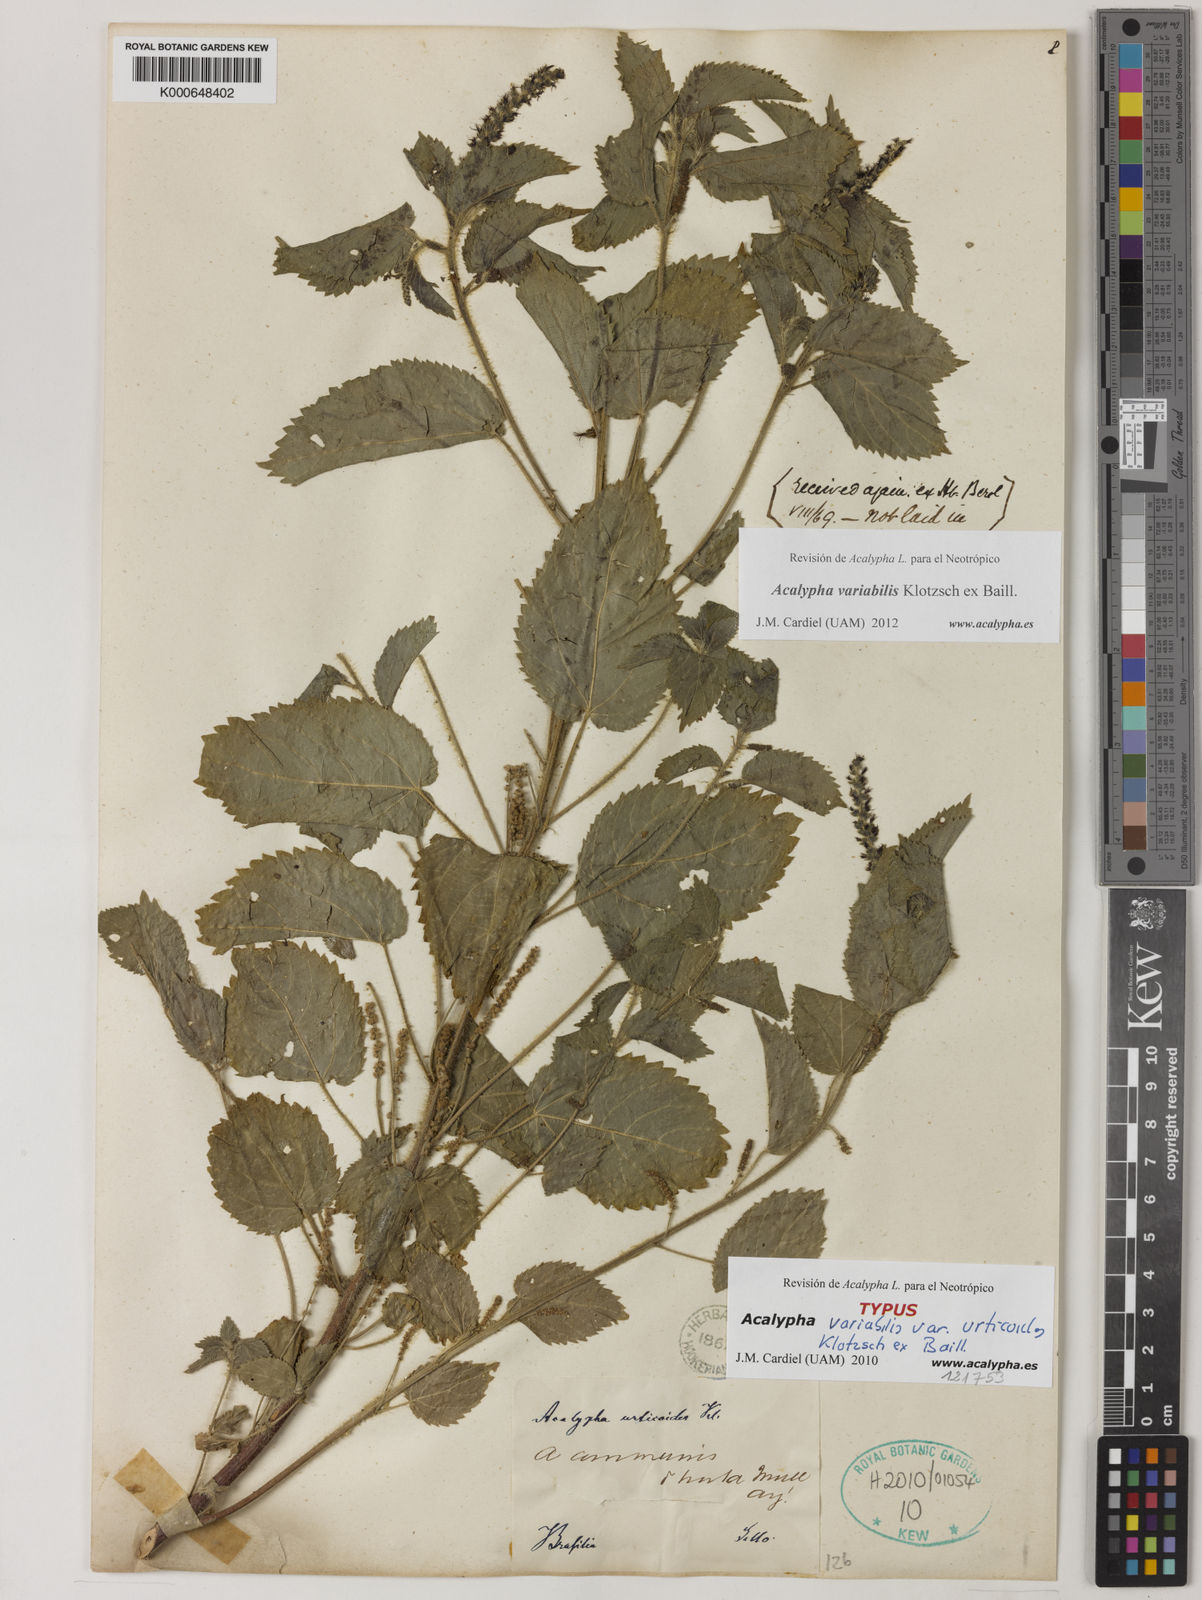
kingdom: Plantae
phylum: Tracheophyta
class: Magnoliopsida
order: Malpighiales
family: Euphorbiaceae
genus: Acalypha
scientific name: Acalypha variabilis
